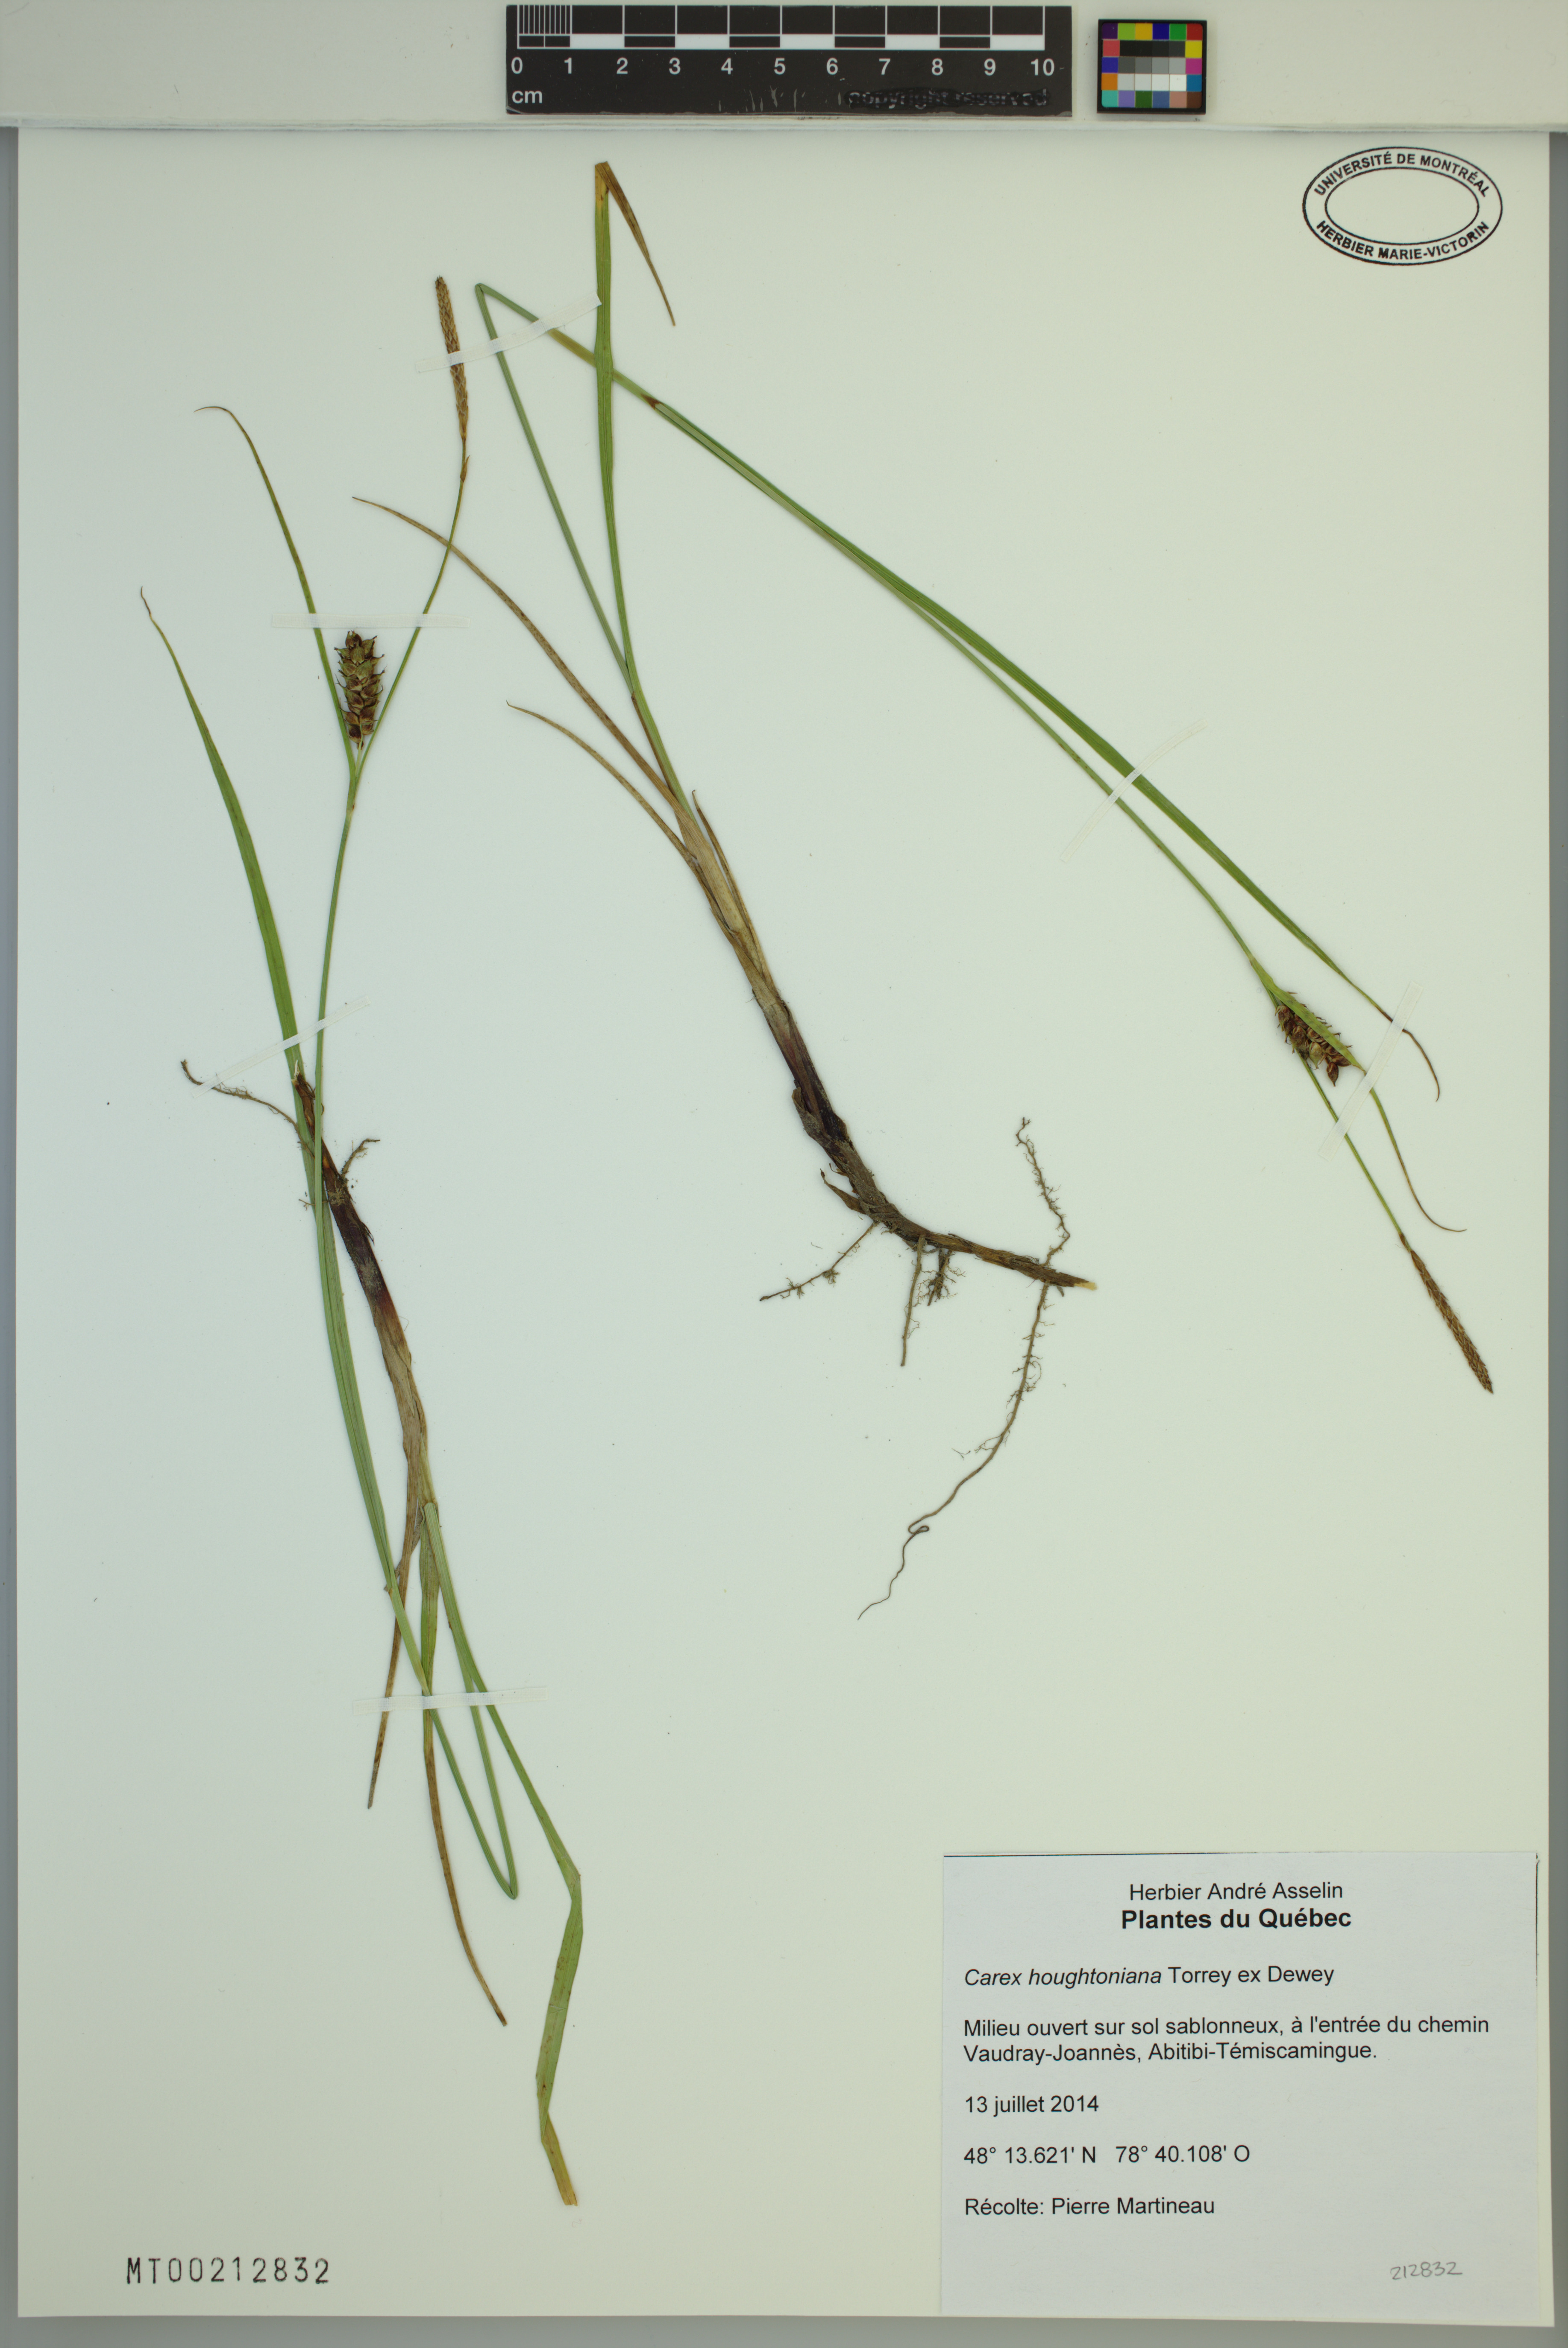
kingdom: Plantae
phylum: Tracheophyta
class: Liliopsida
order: Poales
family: Cyperaceae
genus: Carex
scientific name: Carex houghtoniana
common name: Houghton's sedge
